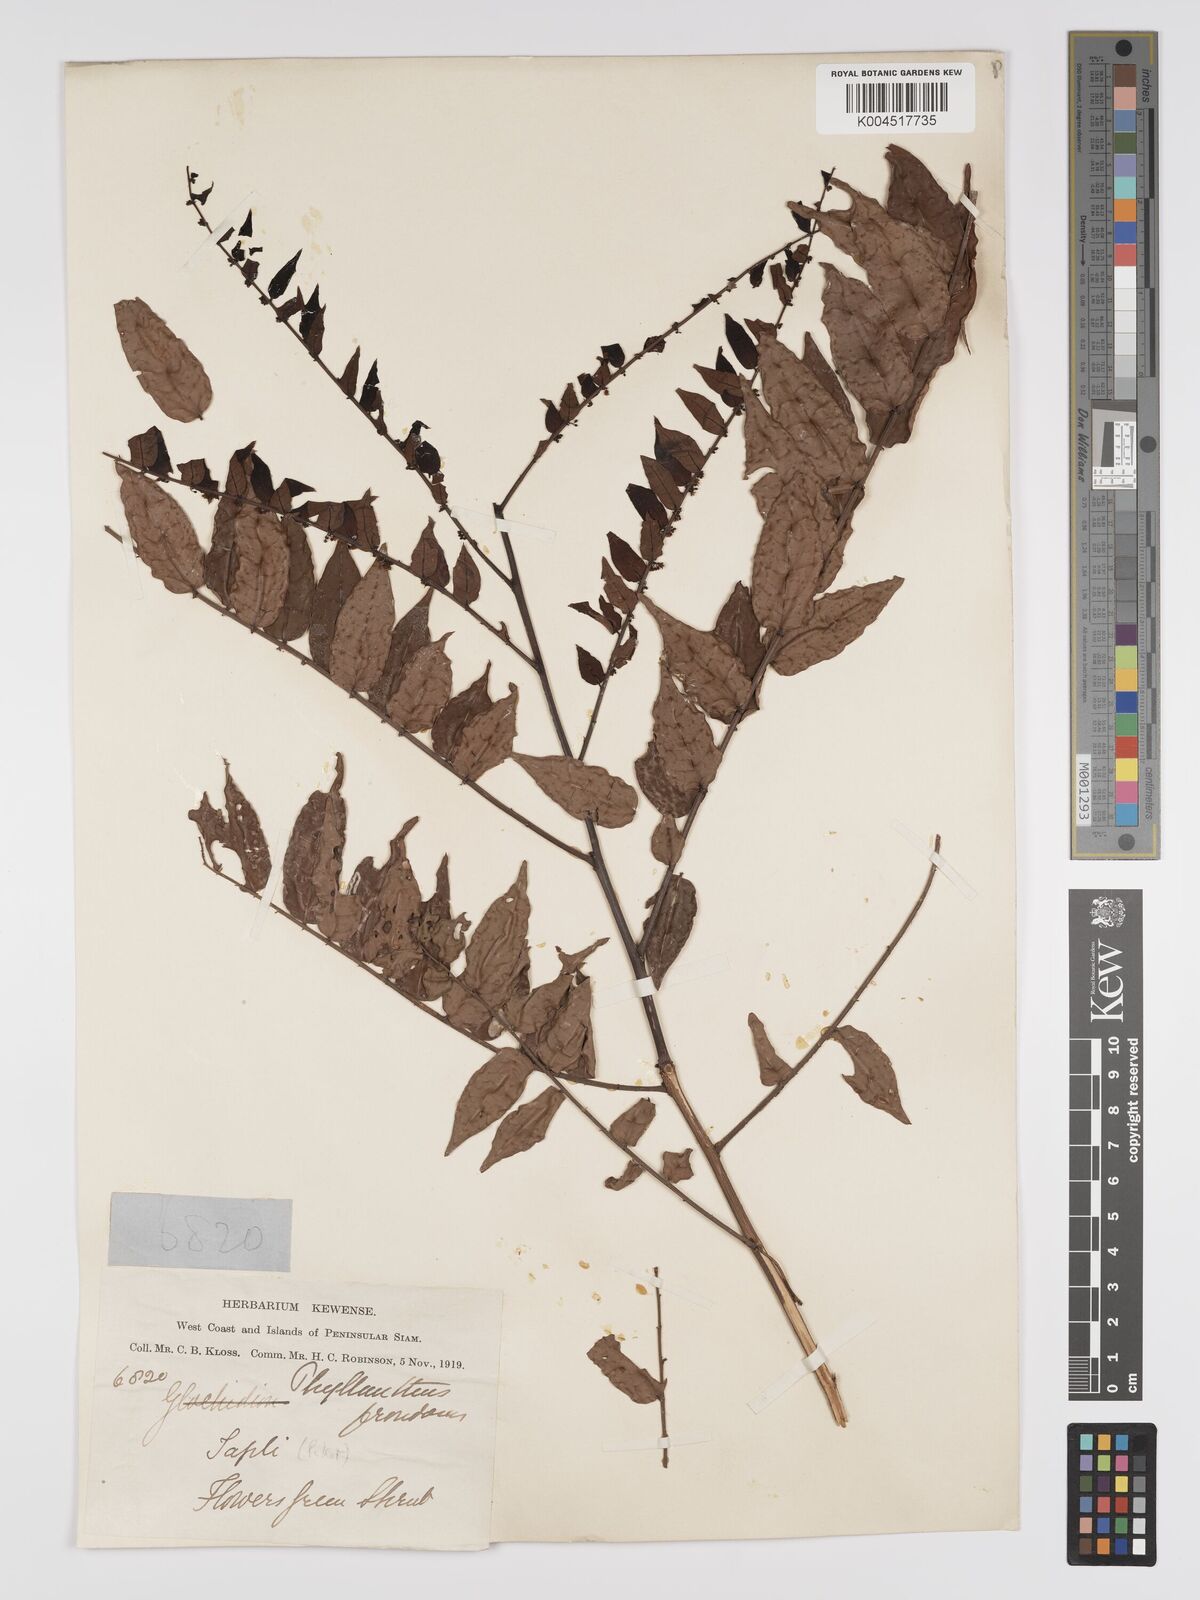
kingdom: Plantae
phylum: Tracheophyta
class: Magnoliopsida
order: Malpighiales
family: Phyllanthaceae
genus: Phyllanthus
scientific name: Phyllanthus
